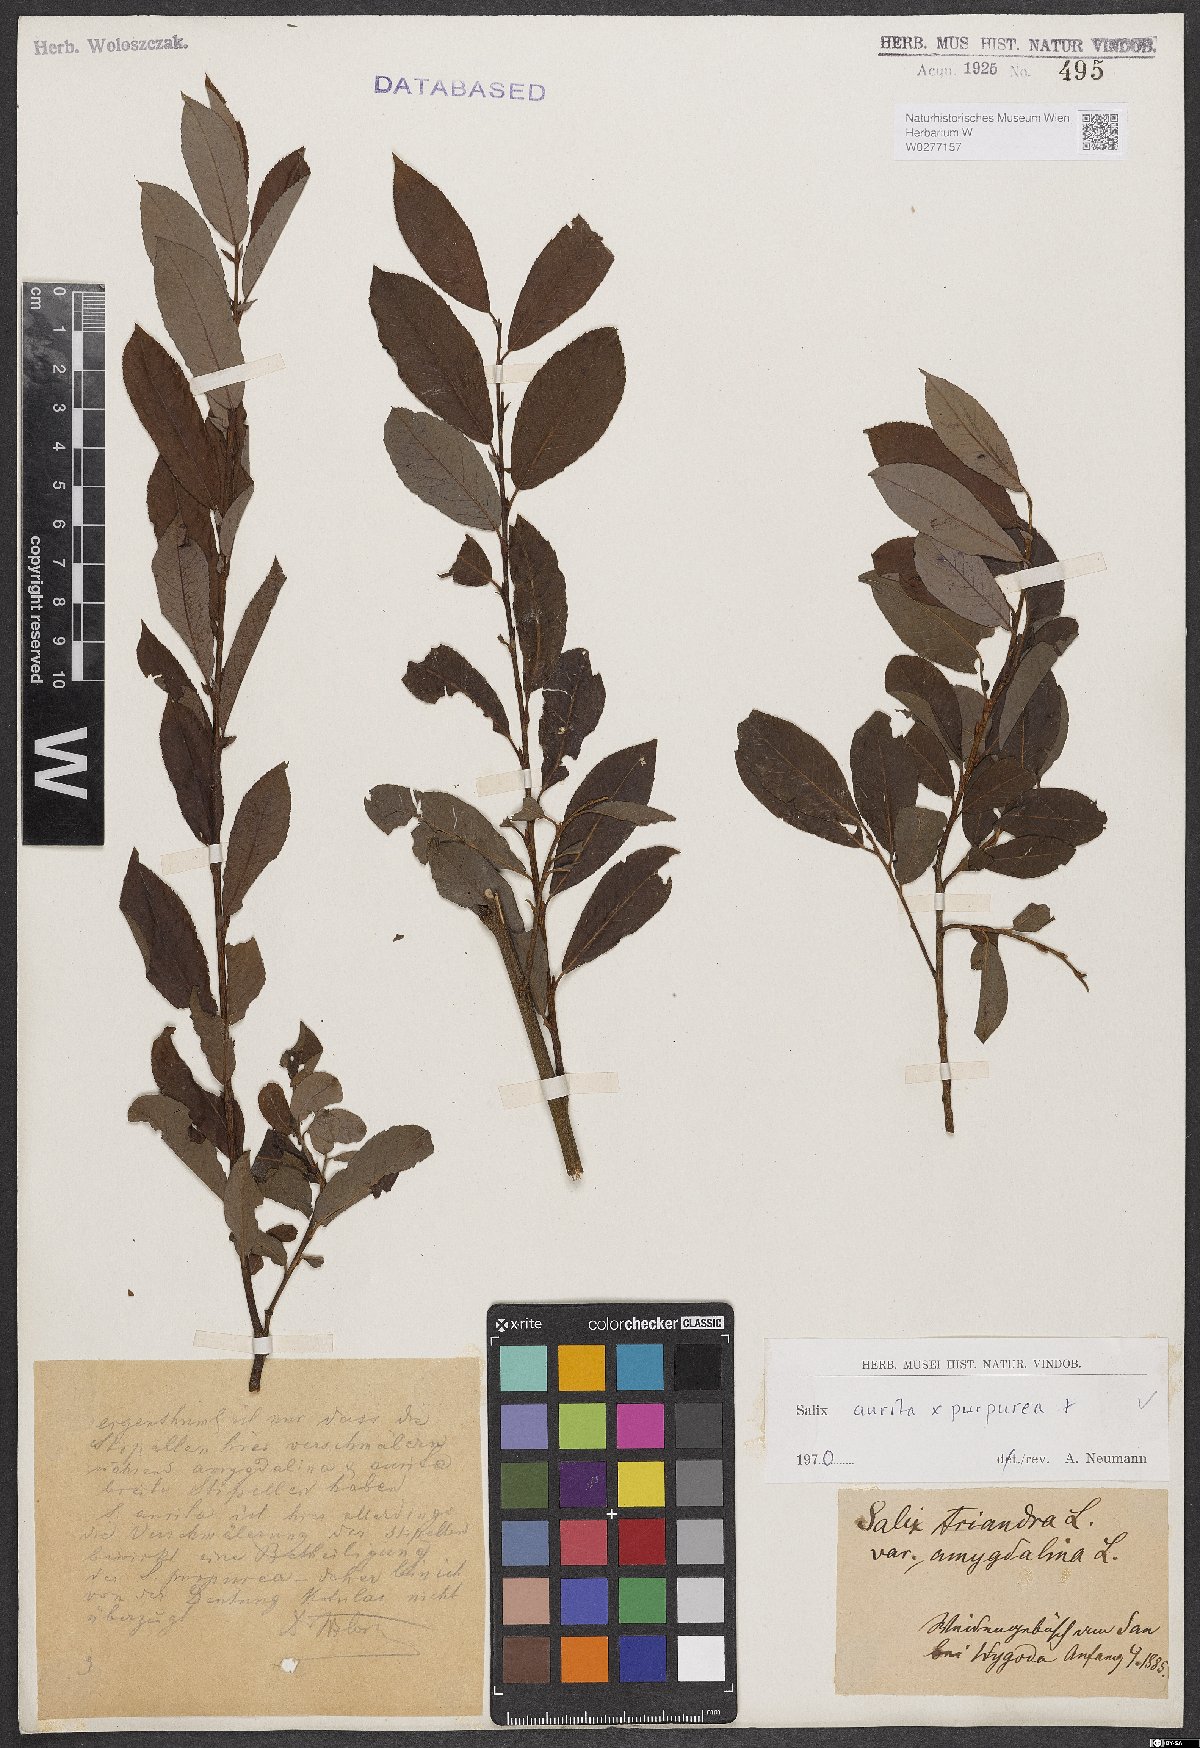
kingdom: Plantae
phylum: Tracheophyta
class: Magnoliopsida
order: Malpighiales
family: Salicaceae
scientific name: Salicaceae
